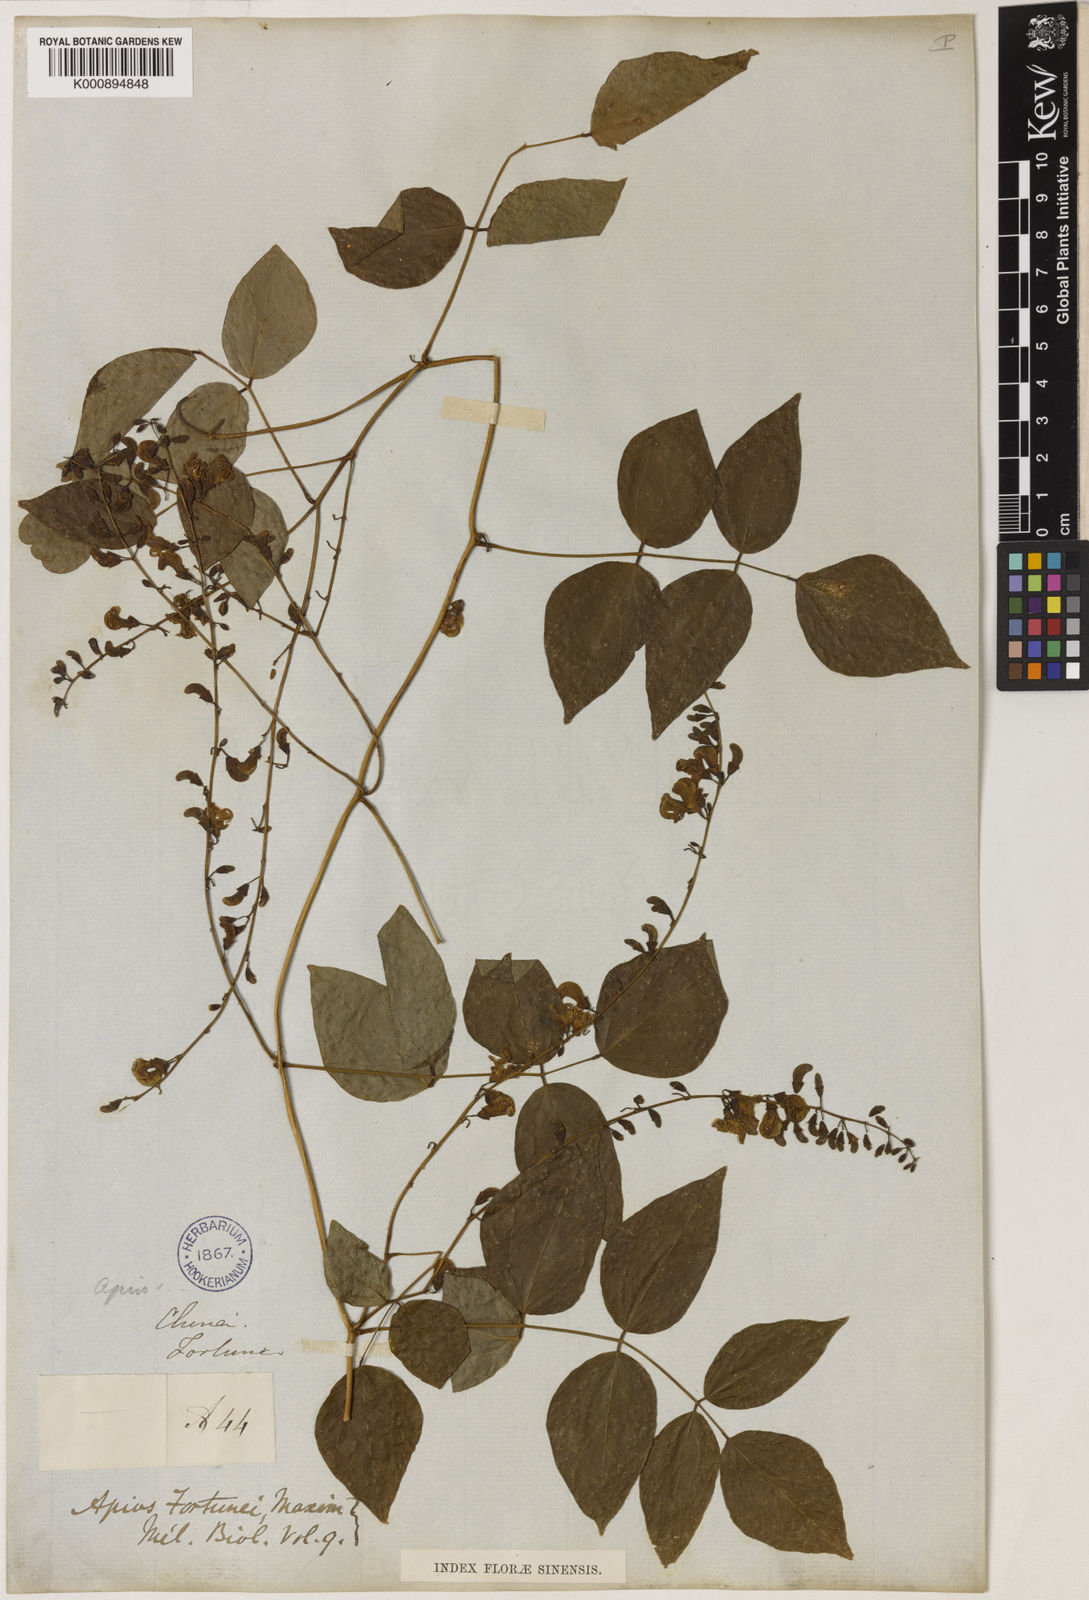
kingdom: Plantae
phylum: Tracheophyta
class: Magnoliopsida
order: Fabales
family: Fabaceae
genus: Apios
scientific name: Apios fortunei
